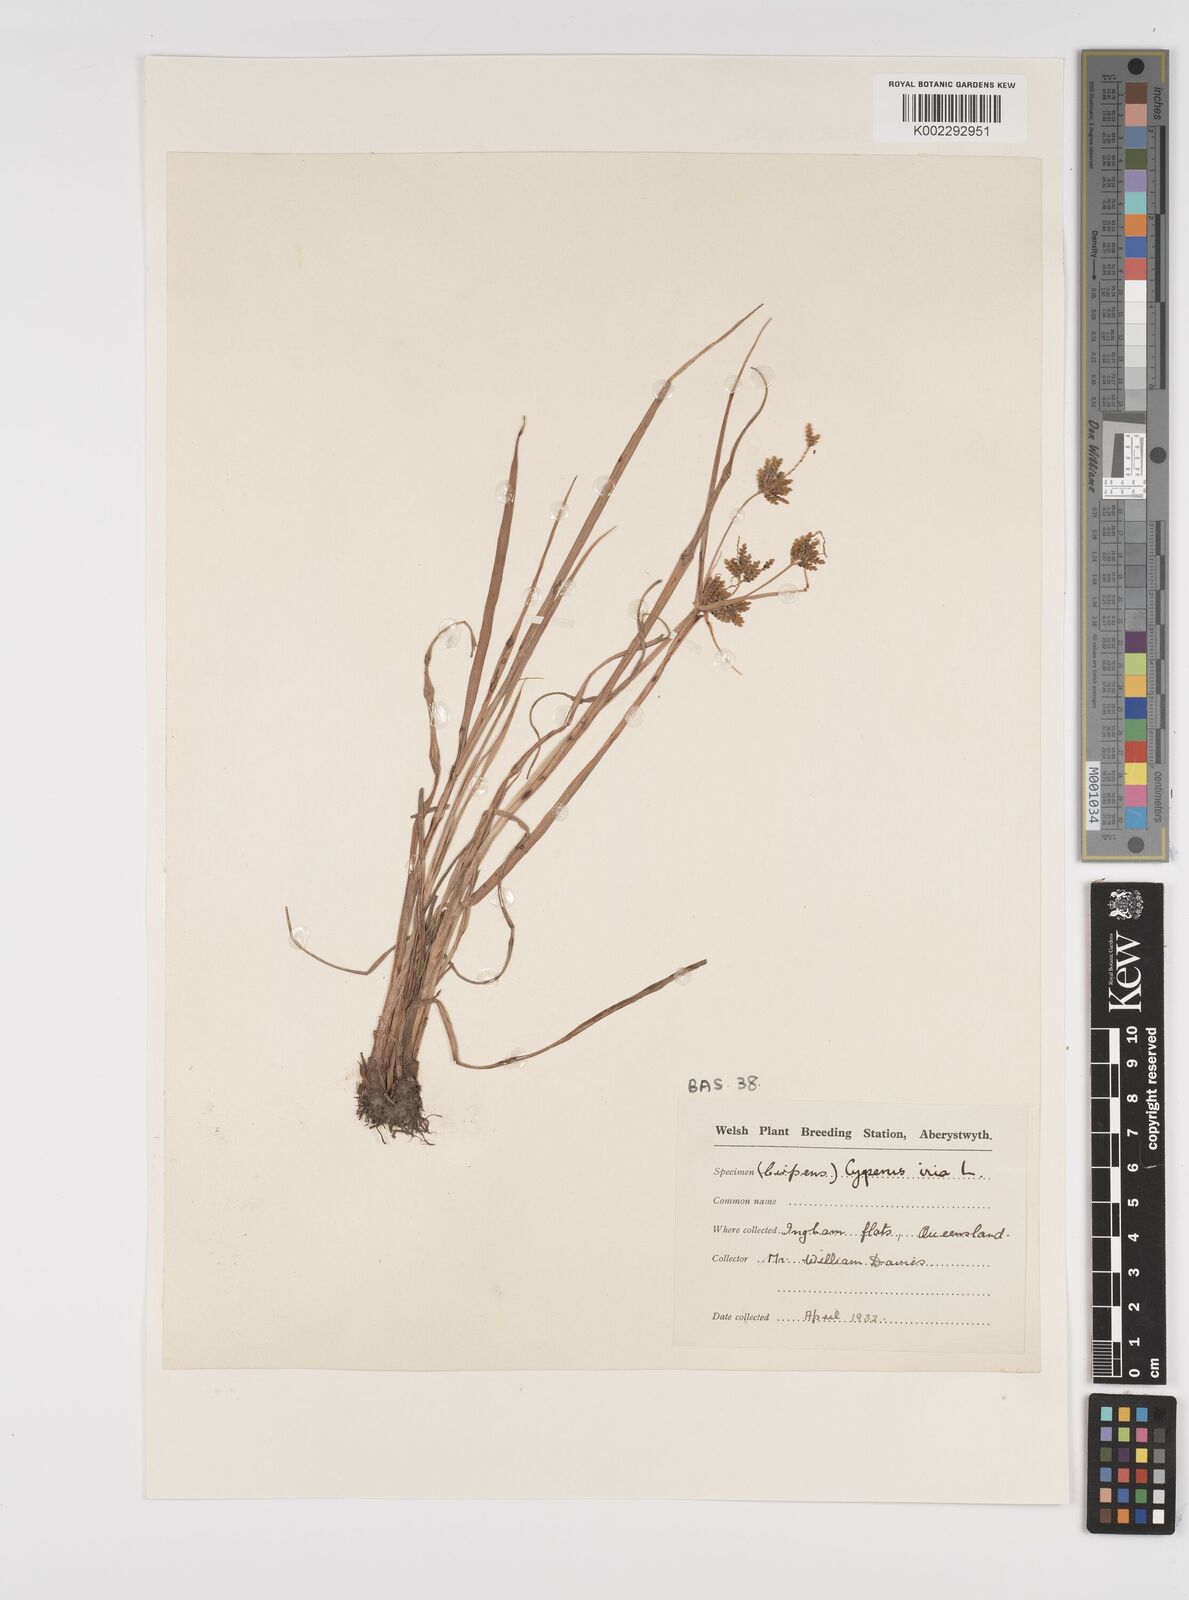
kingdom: Plantae
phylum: Tracheophyta
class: Liliopsida
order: Poales
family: Cyperaceae
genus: Cyperus
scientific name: Cyperus iria
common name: Ricefield flatsedge
